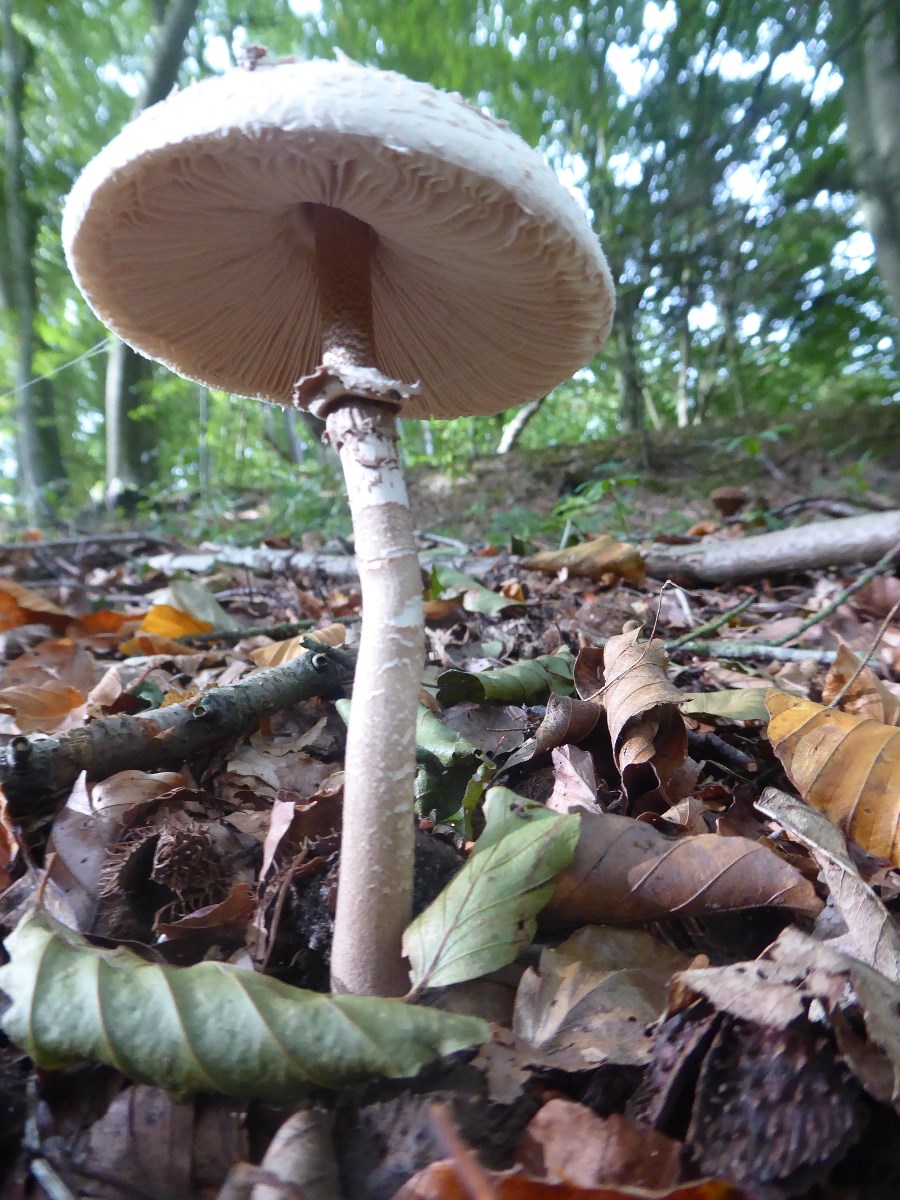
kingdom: Fungi
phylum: Basidiomycota
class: Agaricomycetes
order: Agaricales
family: Agaricaceae
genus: Macrolepiota
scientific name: Macrolepiota
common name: kæmpeparasolhat
